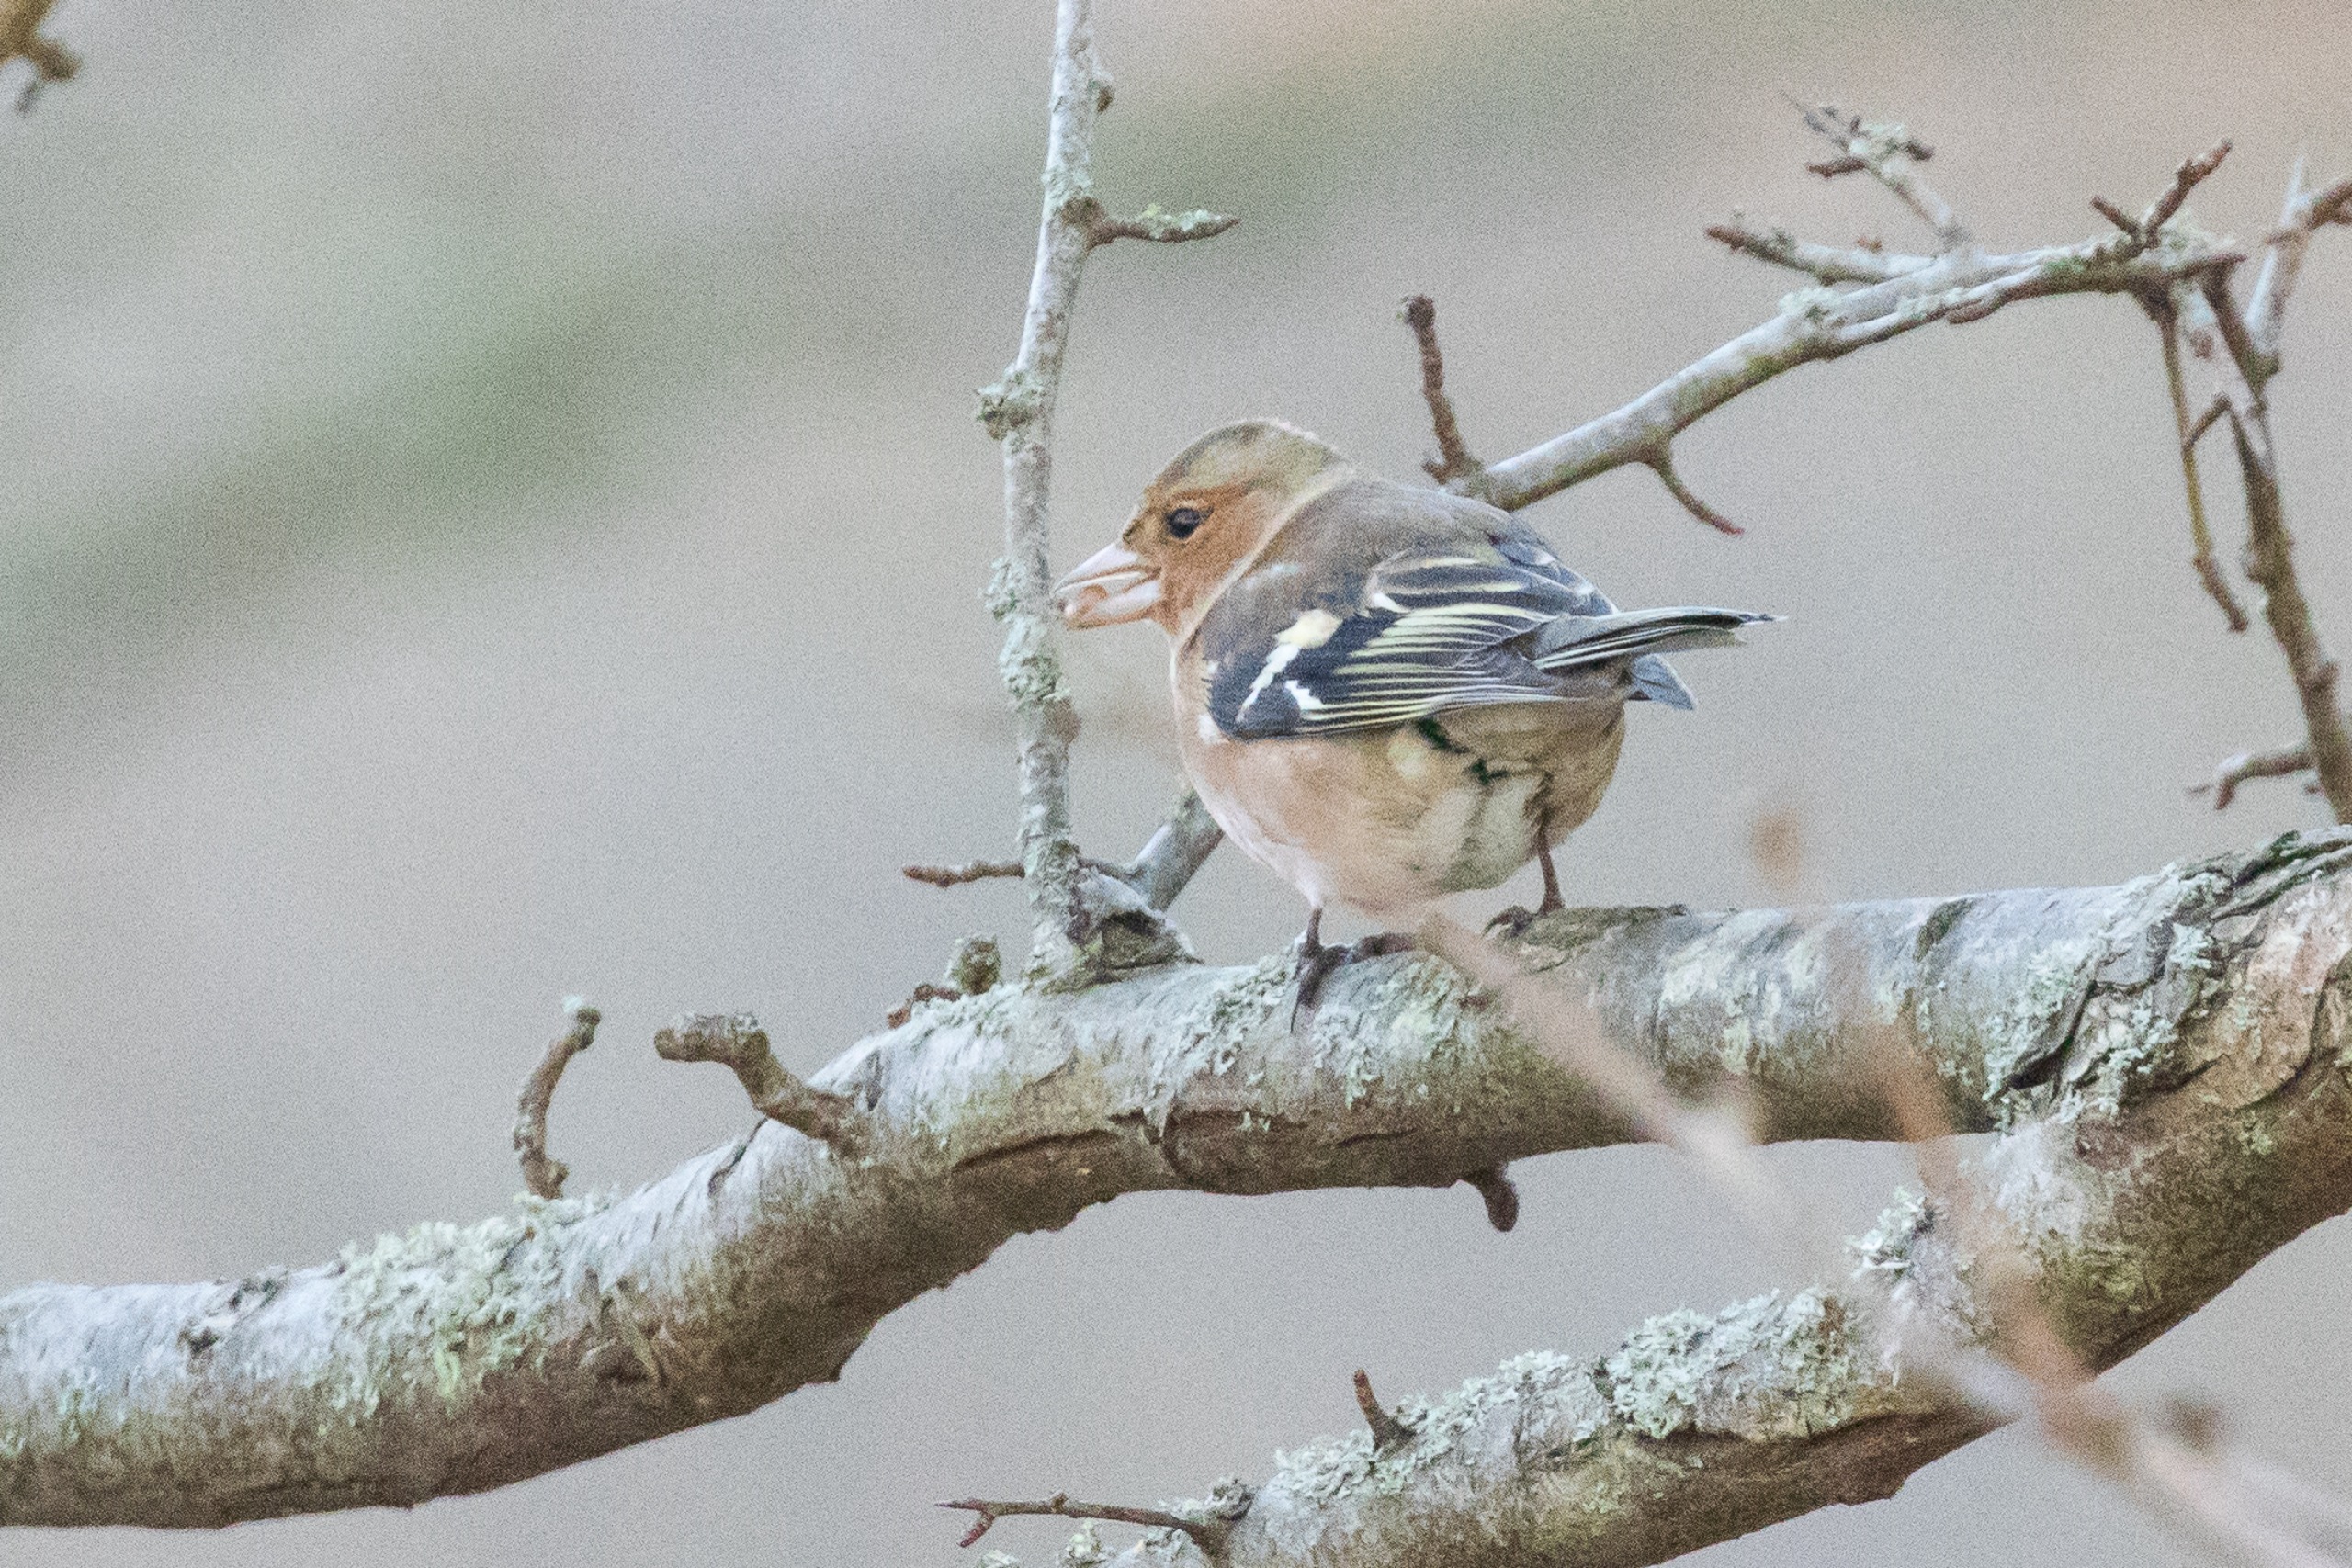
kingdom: Animalia
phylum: Chordata
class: Aves
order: Passeriformes
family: Fringillidae
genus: Fringilla
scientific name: Fringilla coelebs
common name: Bogfinke
